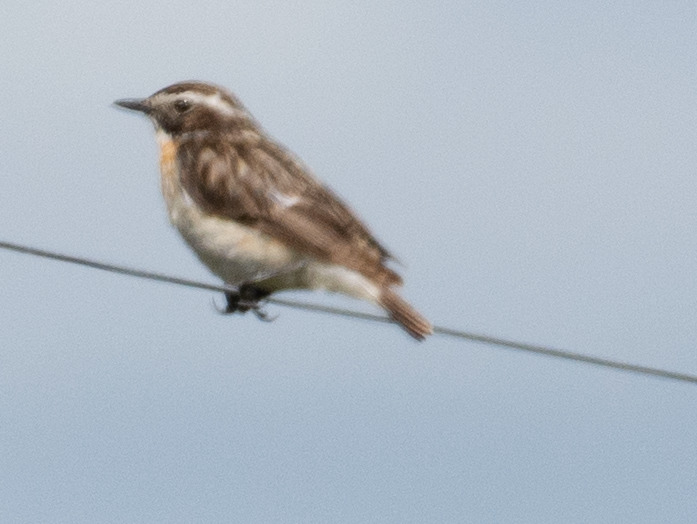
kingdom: Animalia
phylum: Chordata
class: Aves
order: Passeriformes
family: Muscicapidae
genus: Saxicola
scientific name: Saxicola rubetra
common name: Bynkefugl
